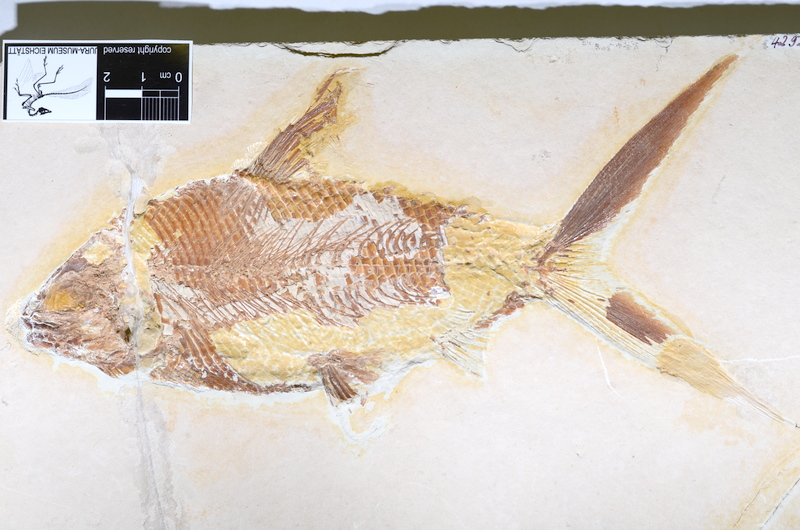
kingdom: Animalia
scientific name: Animalia
